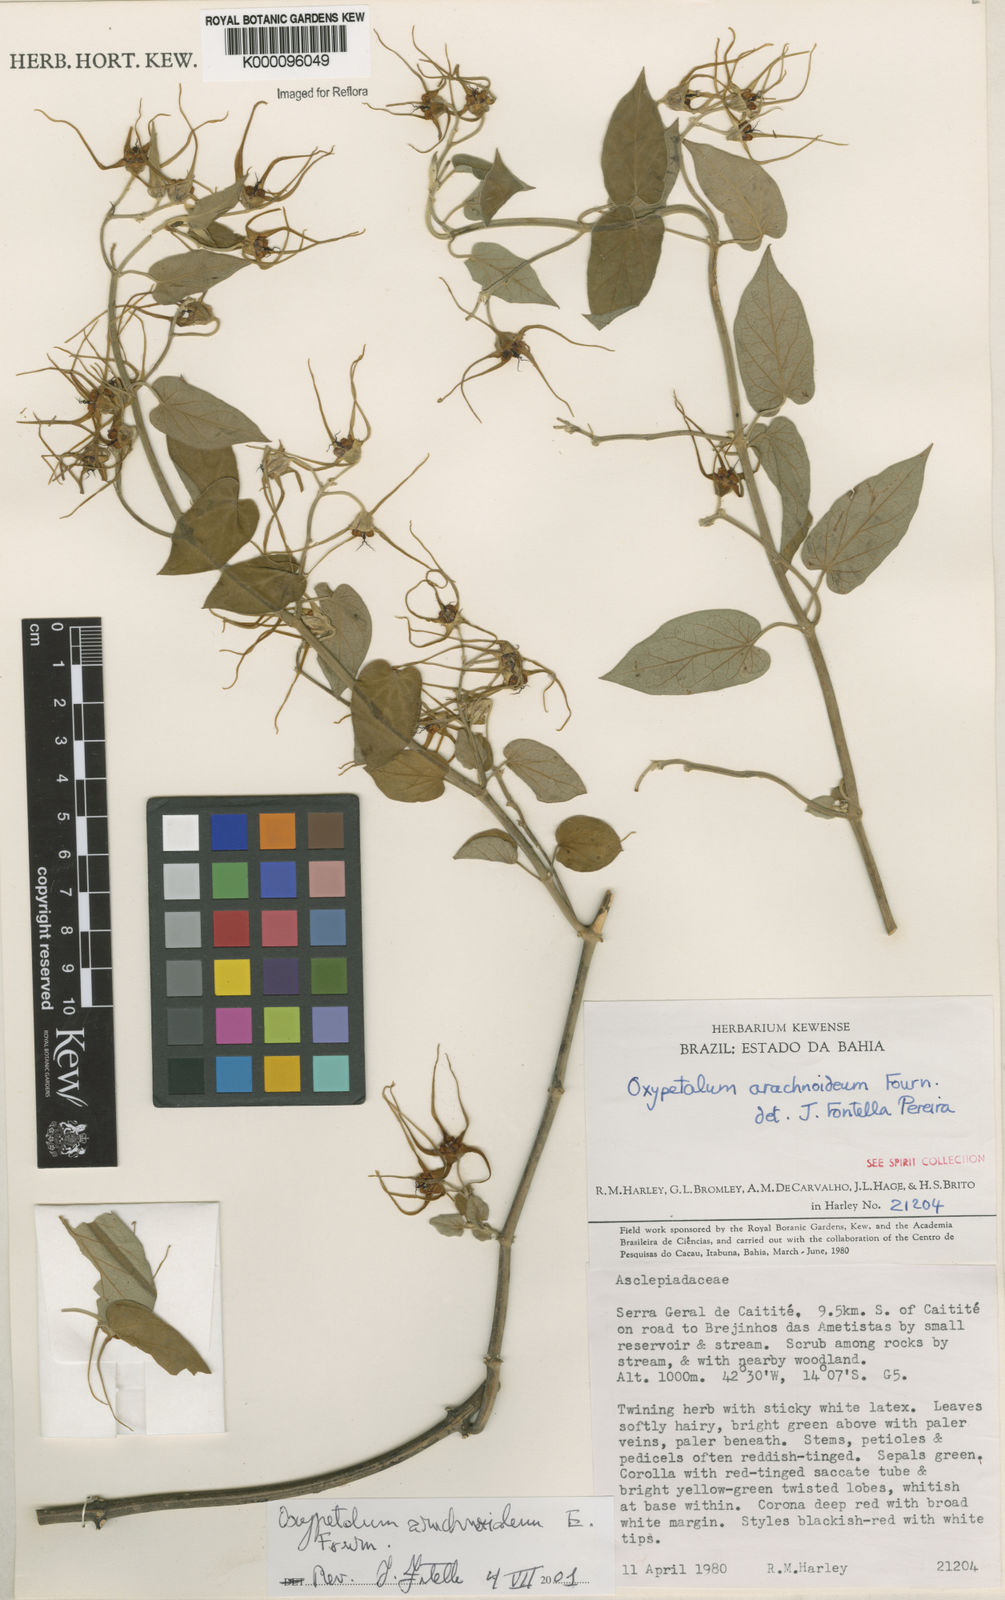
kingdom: Plantae
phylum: Tracheophyta
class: Magnoliopsida
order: Gentianales
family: Apocynaceae
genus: Oxypetalum
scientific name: Oxypetalum arachnoideum
